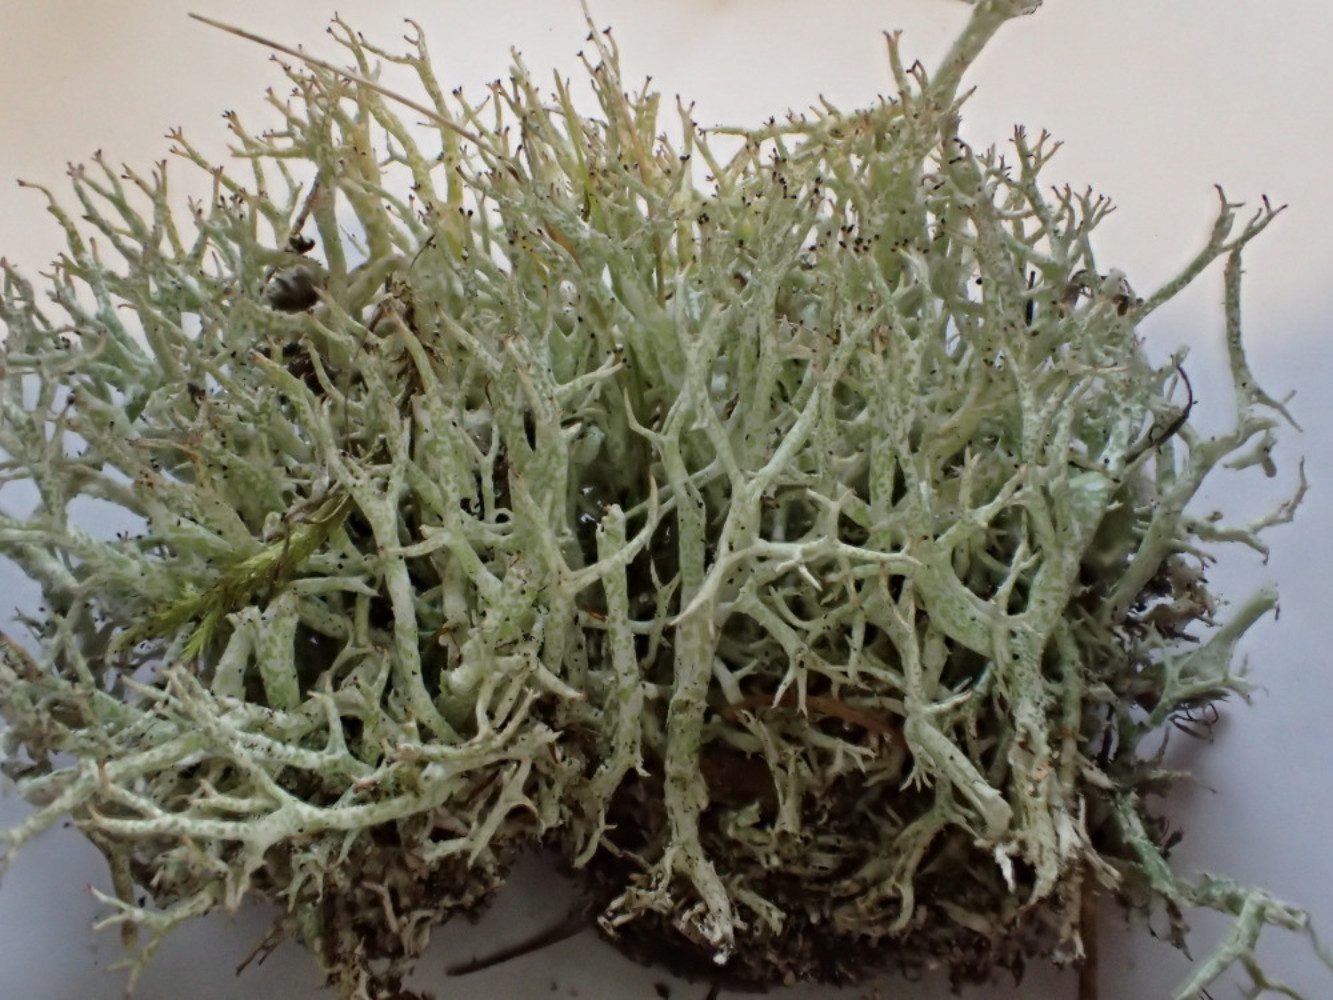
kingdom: Fungi
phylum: Ascomycota
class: Lecanoromycetes
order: Lecanorales
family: Cladoniaceae
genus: Cladonia
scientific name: Cladonia rangiformis
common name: spættet bægerlav
